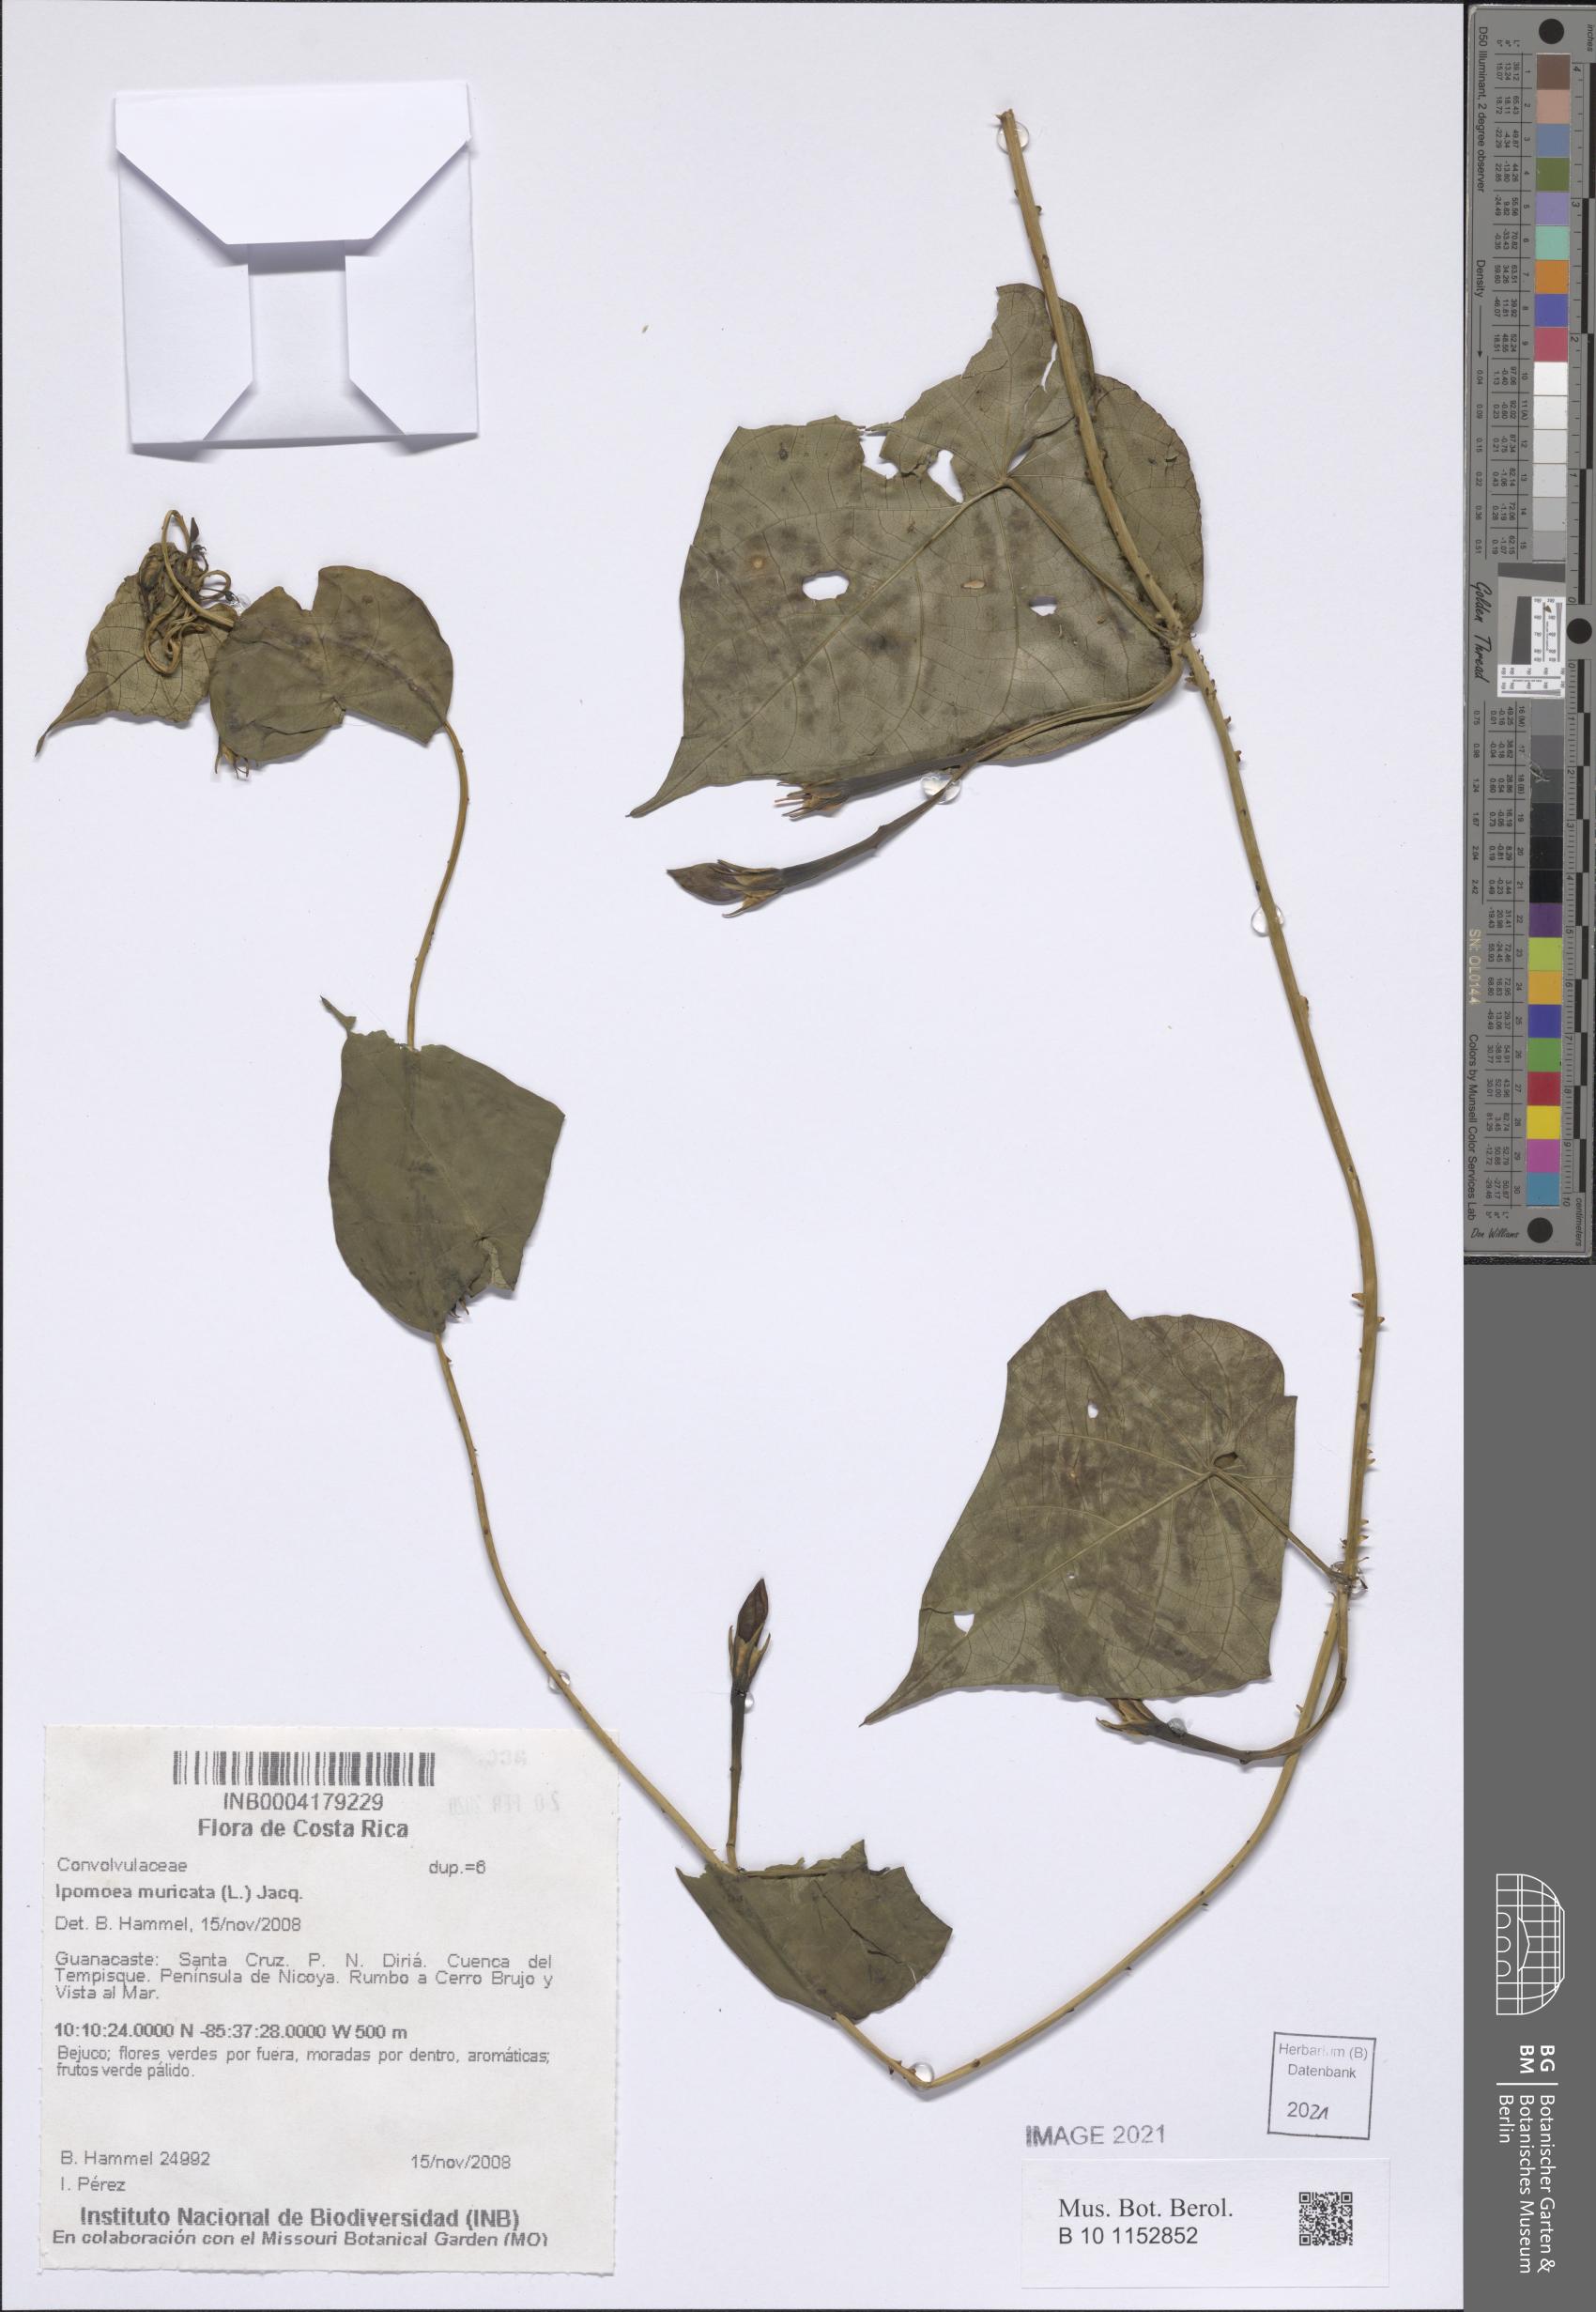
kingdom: Plantae
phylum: Tracheophyta
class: Magnoliopsida
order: Solanales
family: Convolvulaceae
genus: Ipomoea
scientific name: Ipomoea muricata
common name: Lilac-bell
